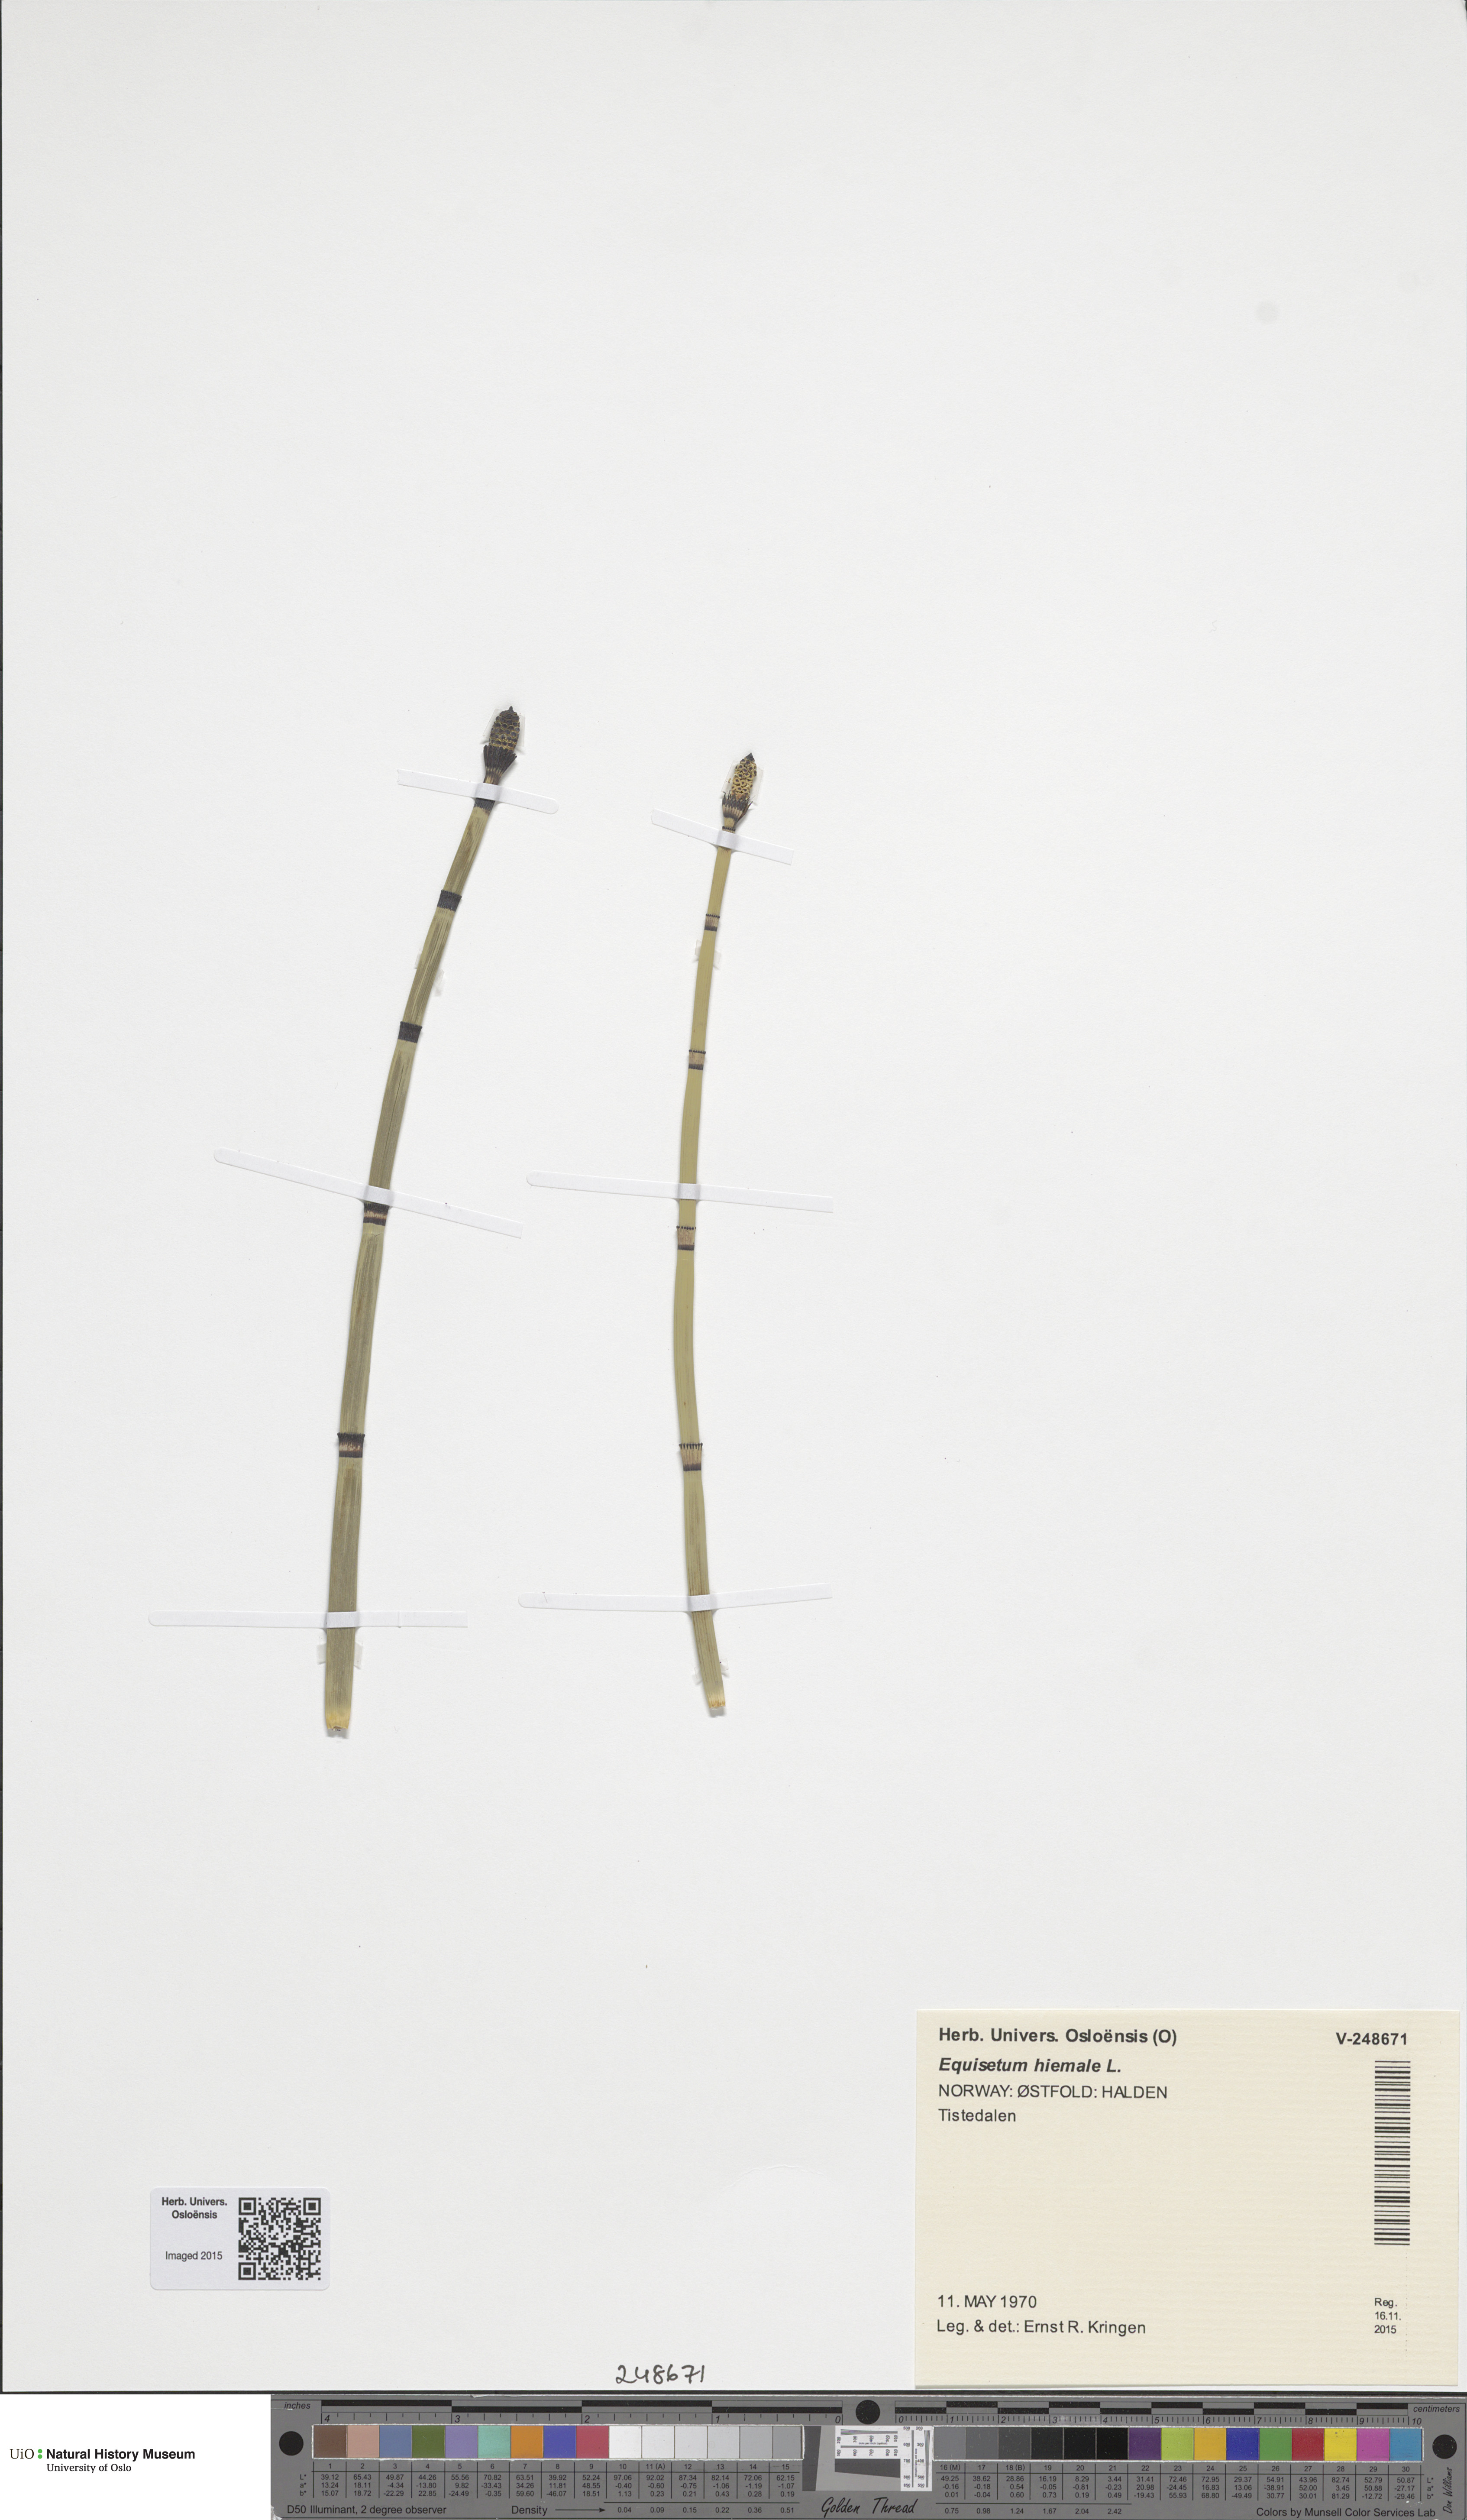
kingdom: Plantae
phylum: Tracheophyta
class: Polypodiopsida
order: Equisetales
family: Equisetaceae
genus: Equisetum
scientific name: Equisetum hyemale
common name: Rough horsetail
